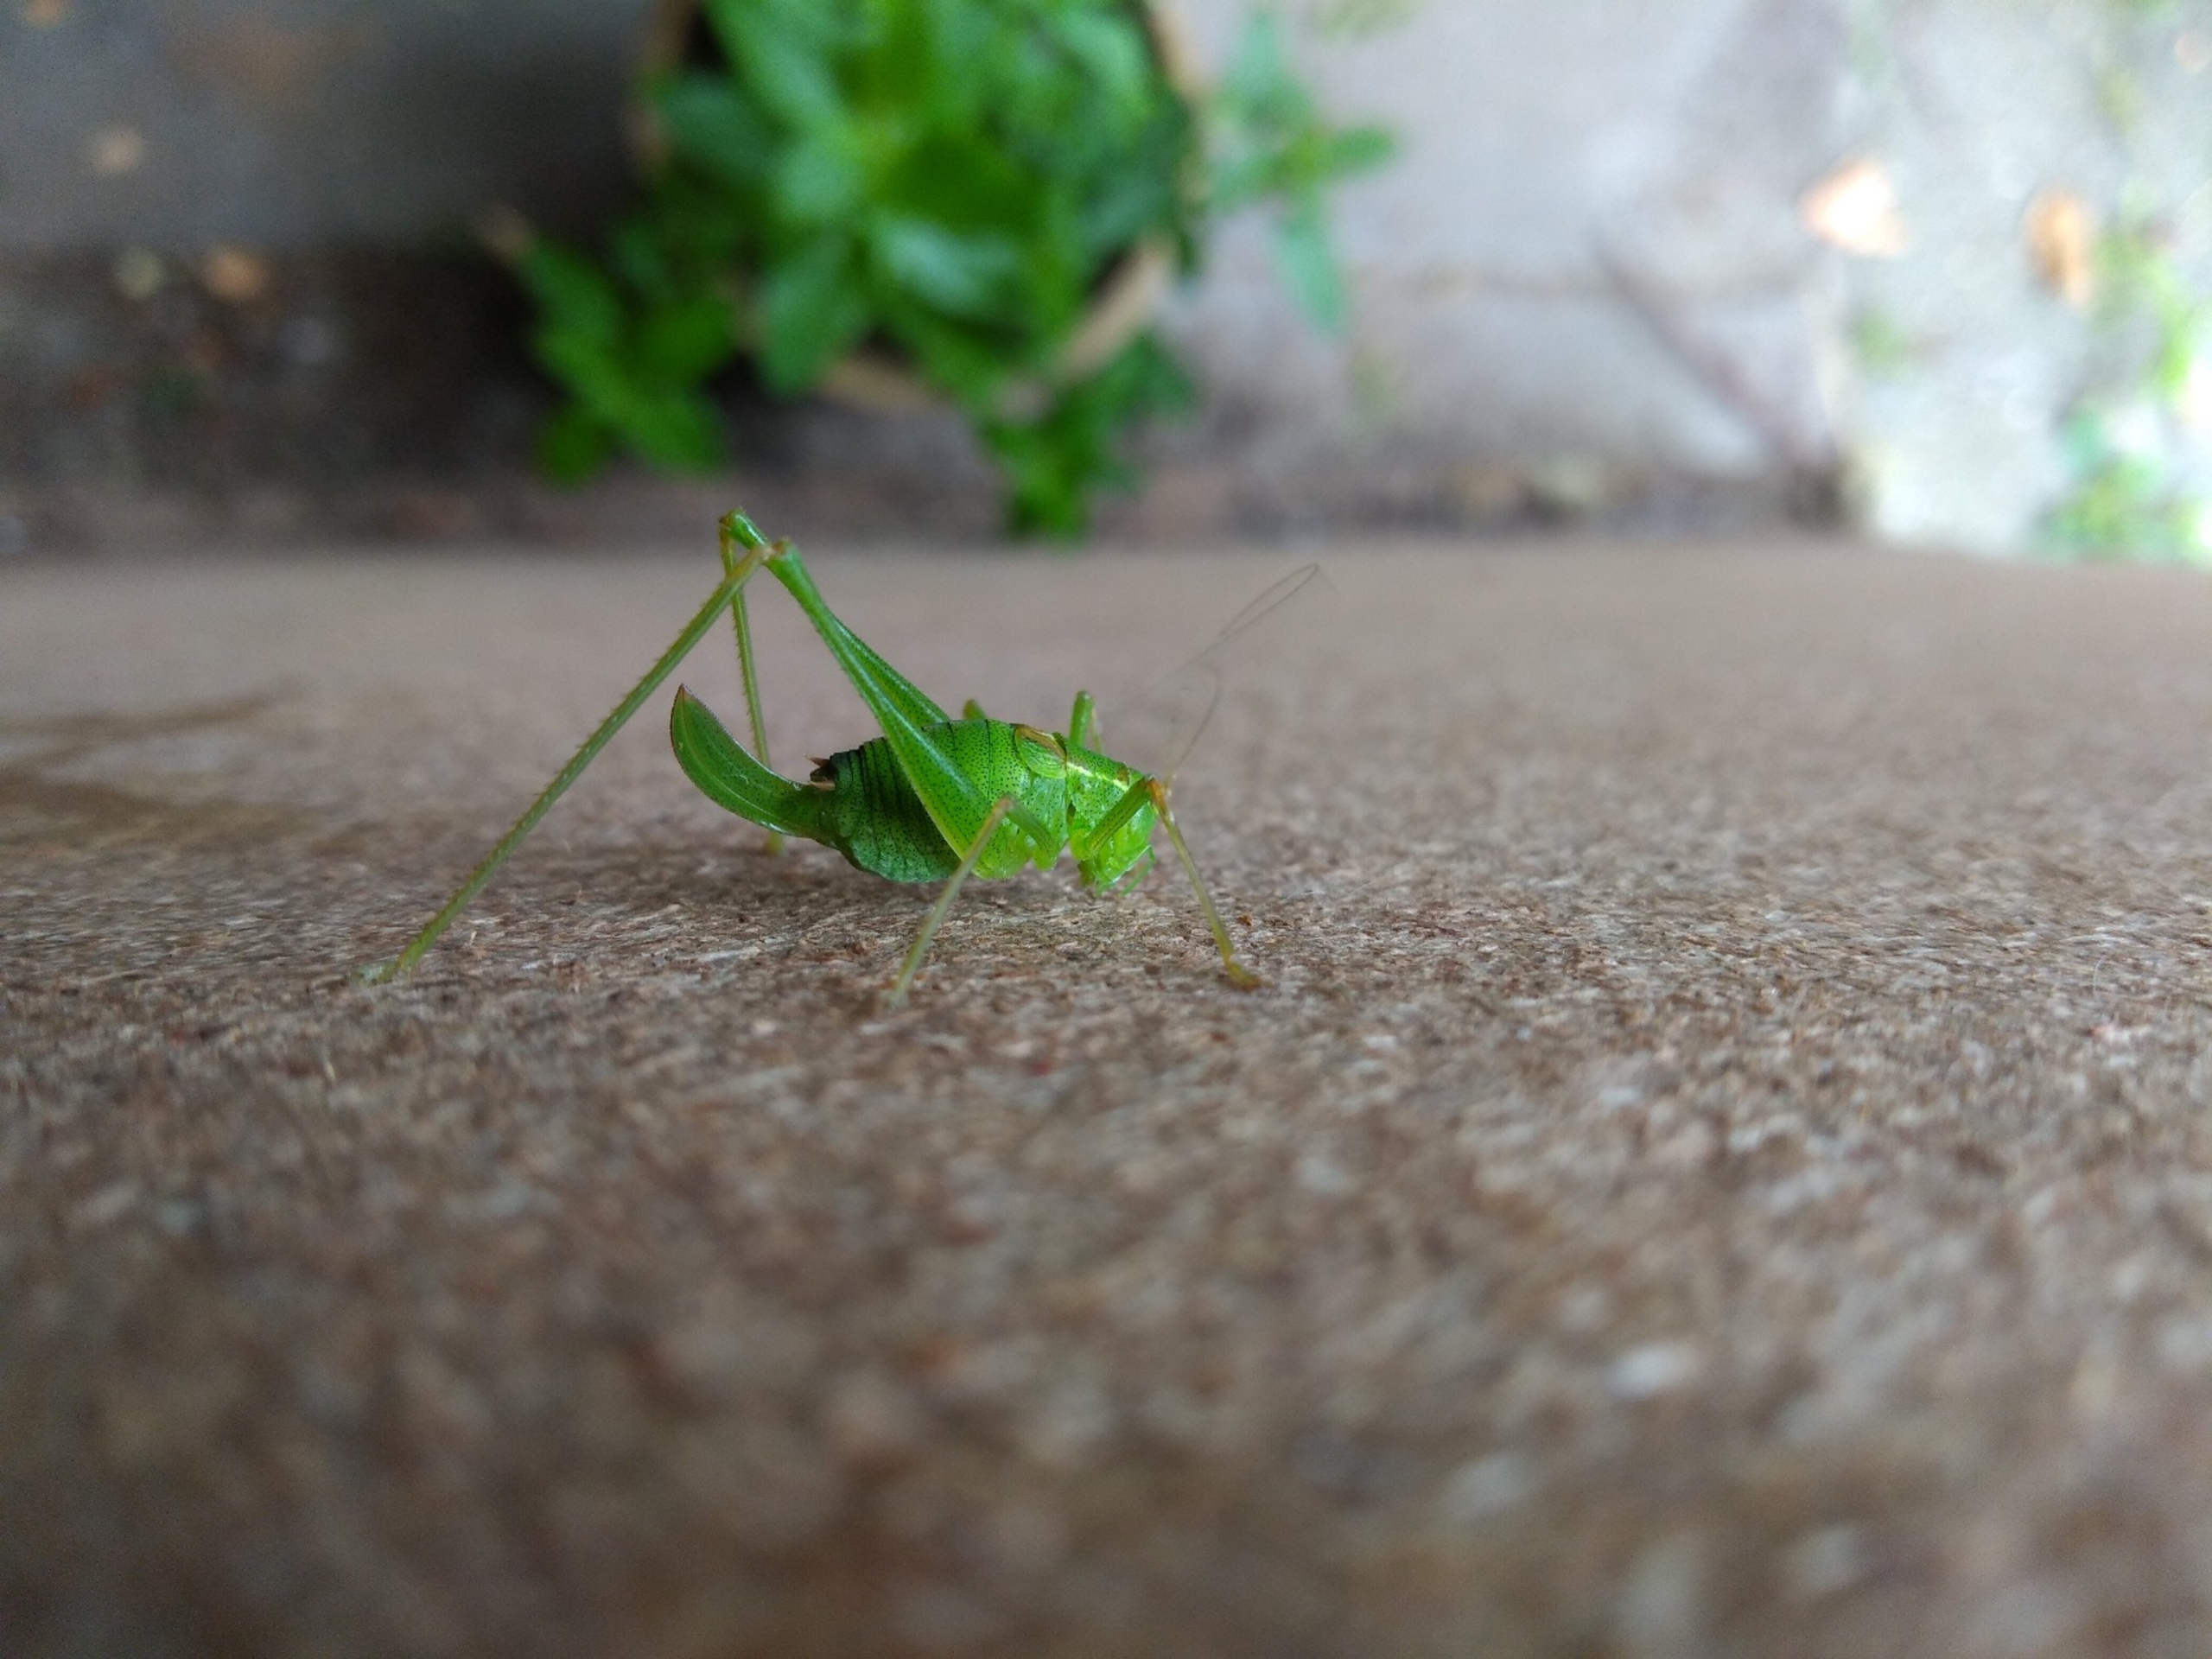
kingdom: Animalia
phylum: Arthropoda
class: Insecta
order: Orthoptera
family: Tettigoniidae
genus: Leptophyes
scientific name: Leptophyes punctatissima
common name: Krumknivgræshoppe
